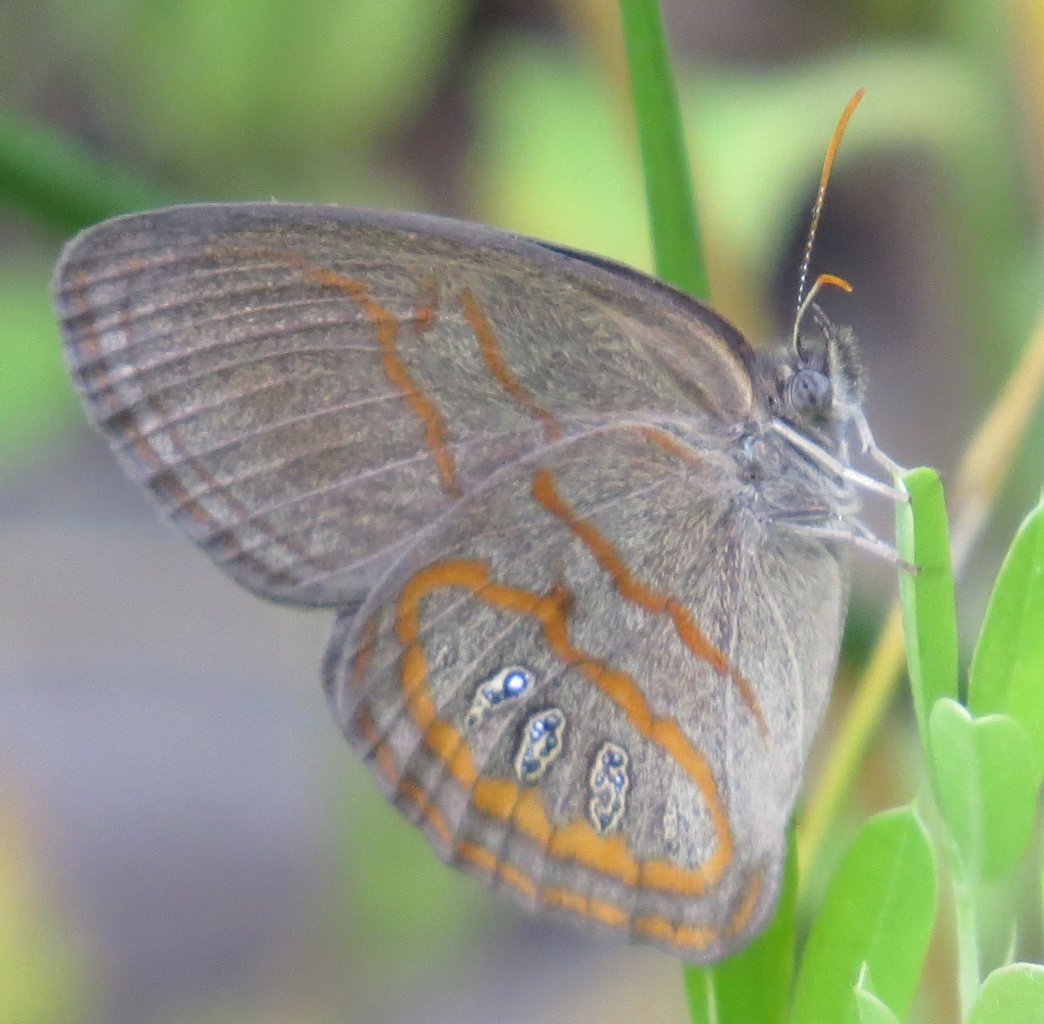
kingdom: Animalia
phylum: Arthropoda
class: Insecta
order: Lepidoptera
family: Nymphalidae
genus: Euptychia
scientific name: Euptychia phocion
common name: Georgia Satyr
